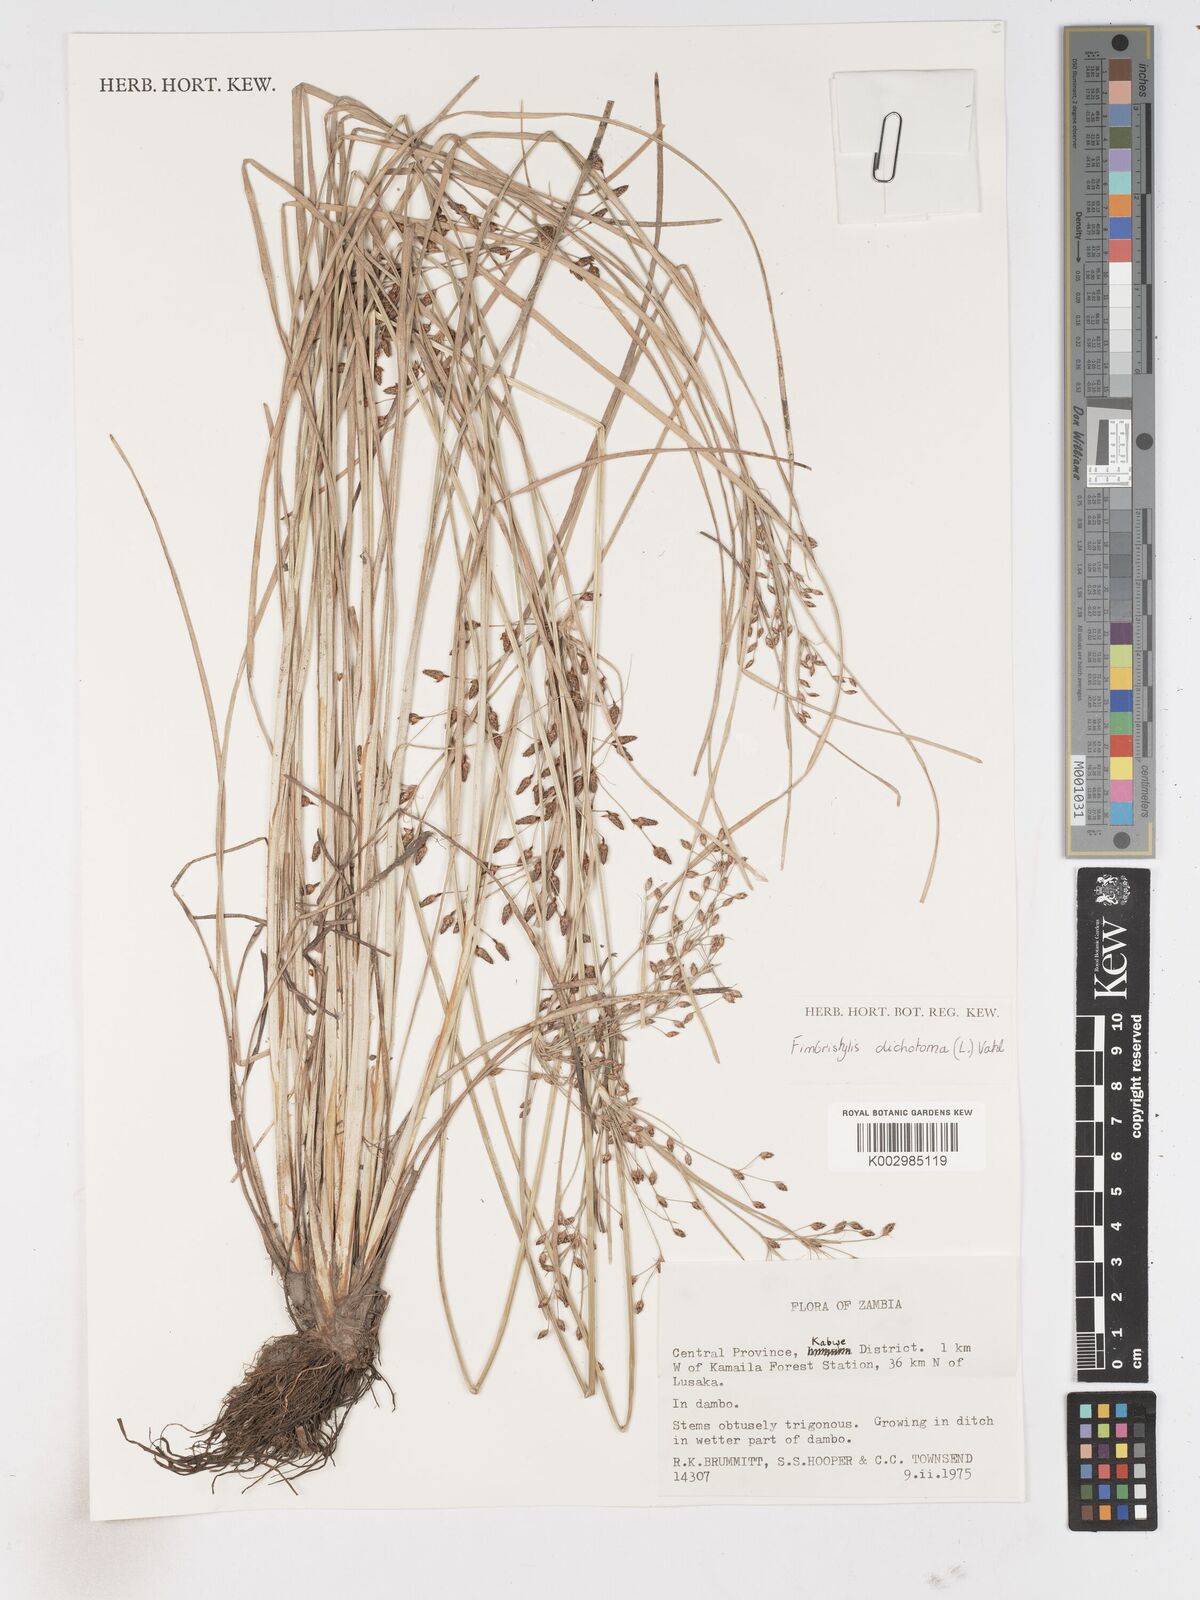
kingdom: Plantae
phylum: Tracheophyta
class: Liliopsida
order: Poales
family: Cyperaceae
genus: Fimbristylis
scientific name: Fimbristylis dichotoma
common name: Forked fimbry
